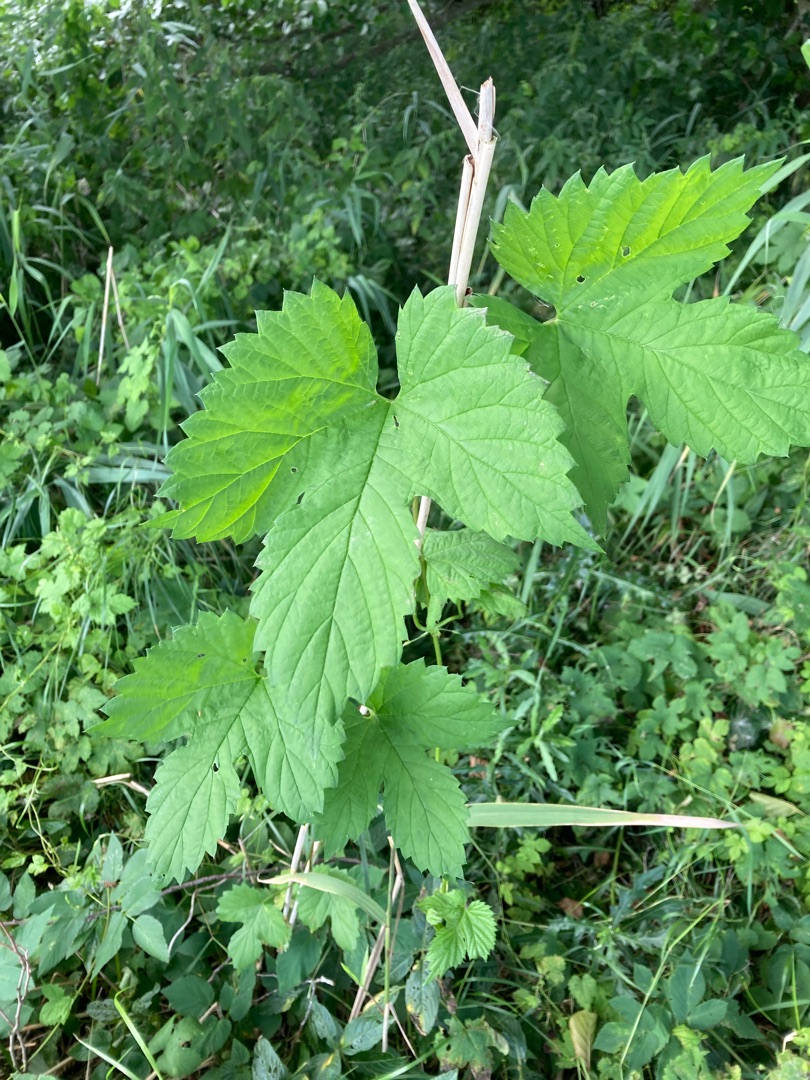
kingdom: Plantae
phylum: Tracheophyta
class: Magnoliopsida
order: Rosales
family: Cannabaceae
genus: Humulus
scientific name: Humulus lupulus
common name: Humle
